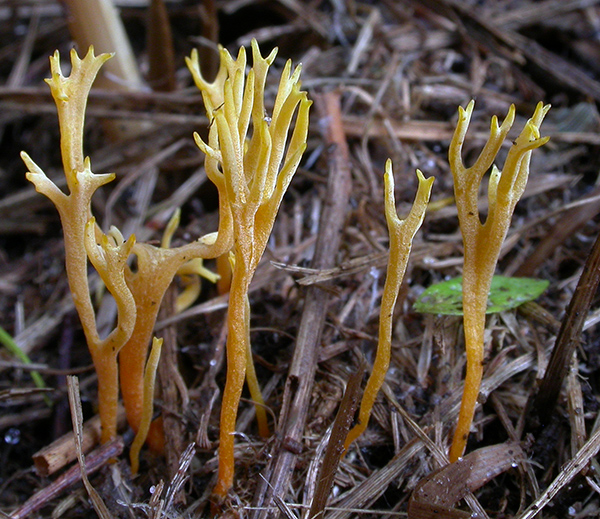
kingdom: Fungi
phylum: Basidiomycota
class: Agaricomycetes
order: Agaricales
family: Clavariaceae
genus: Ramariopsis
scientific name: Ramariopsis crocea
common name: gylden køllesvamp
